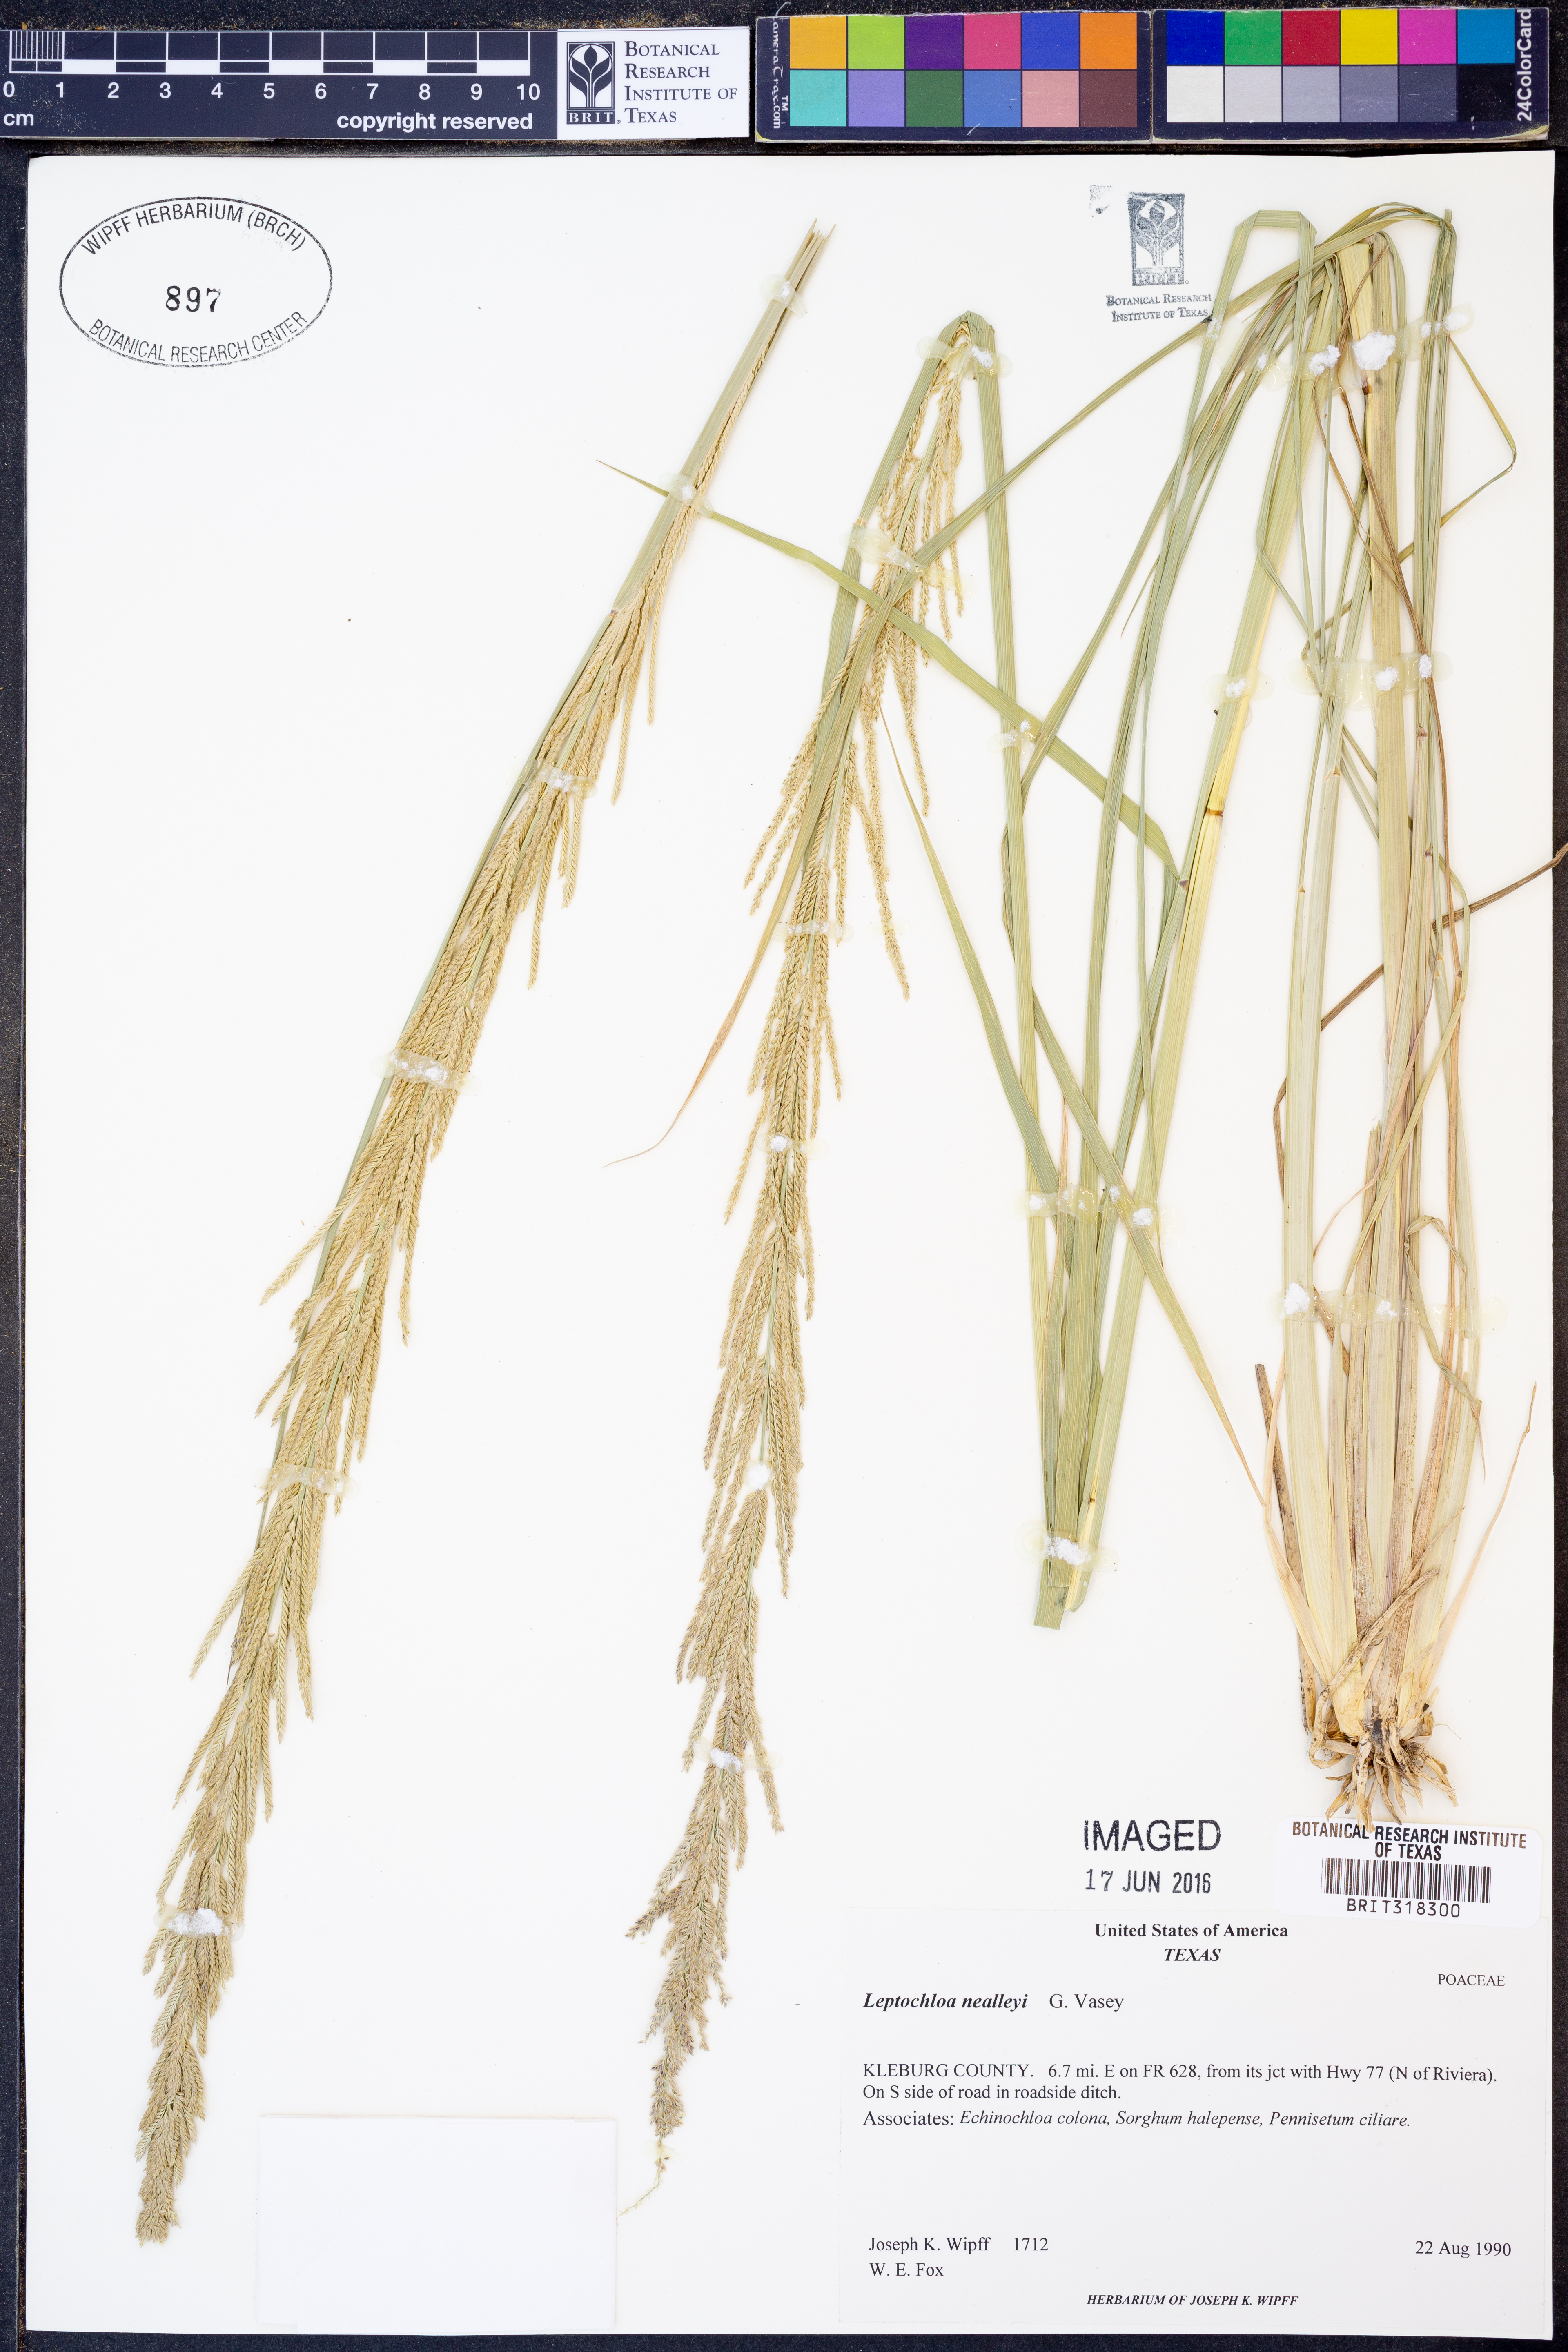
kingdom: Plantae
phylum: Tracheophyta
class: Liliopsida
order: Poales
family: Poaceae
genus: Leptochloa
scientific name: Leptochloa nealleyi
